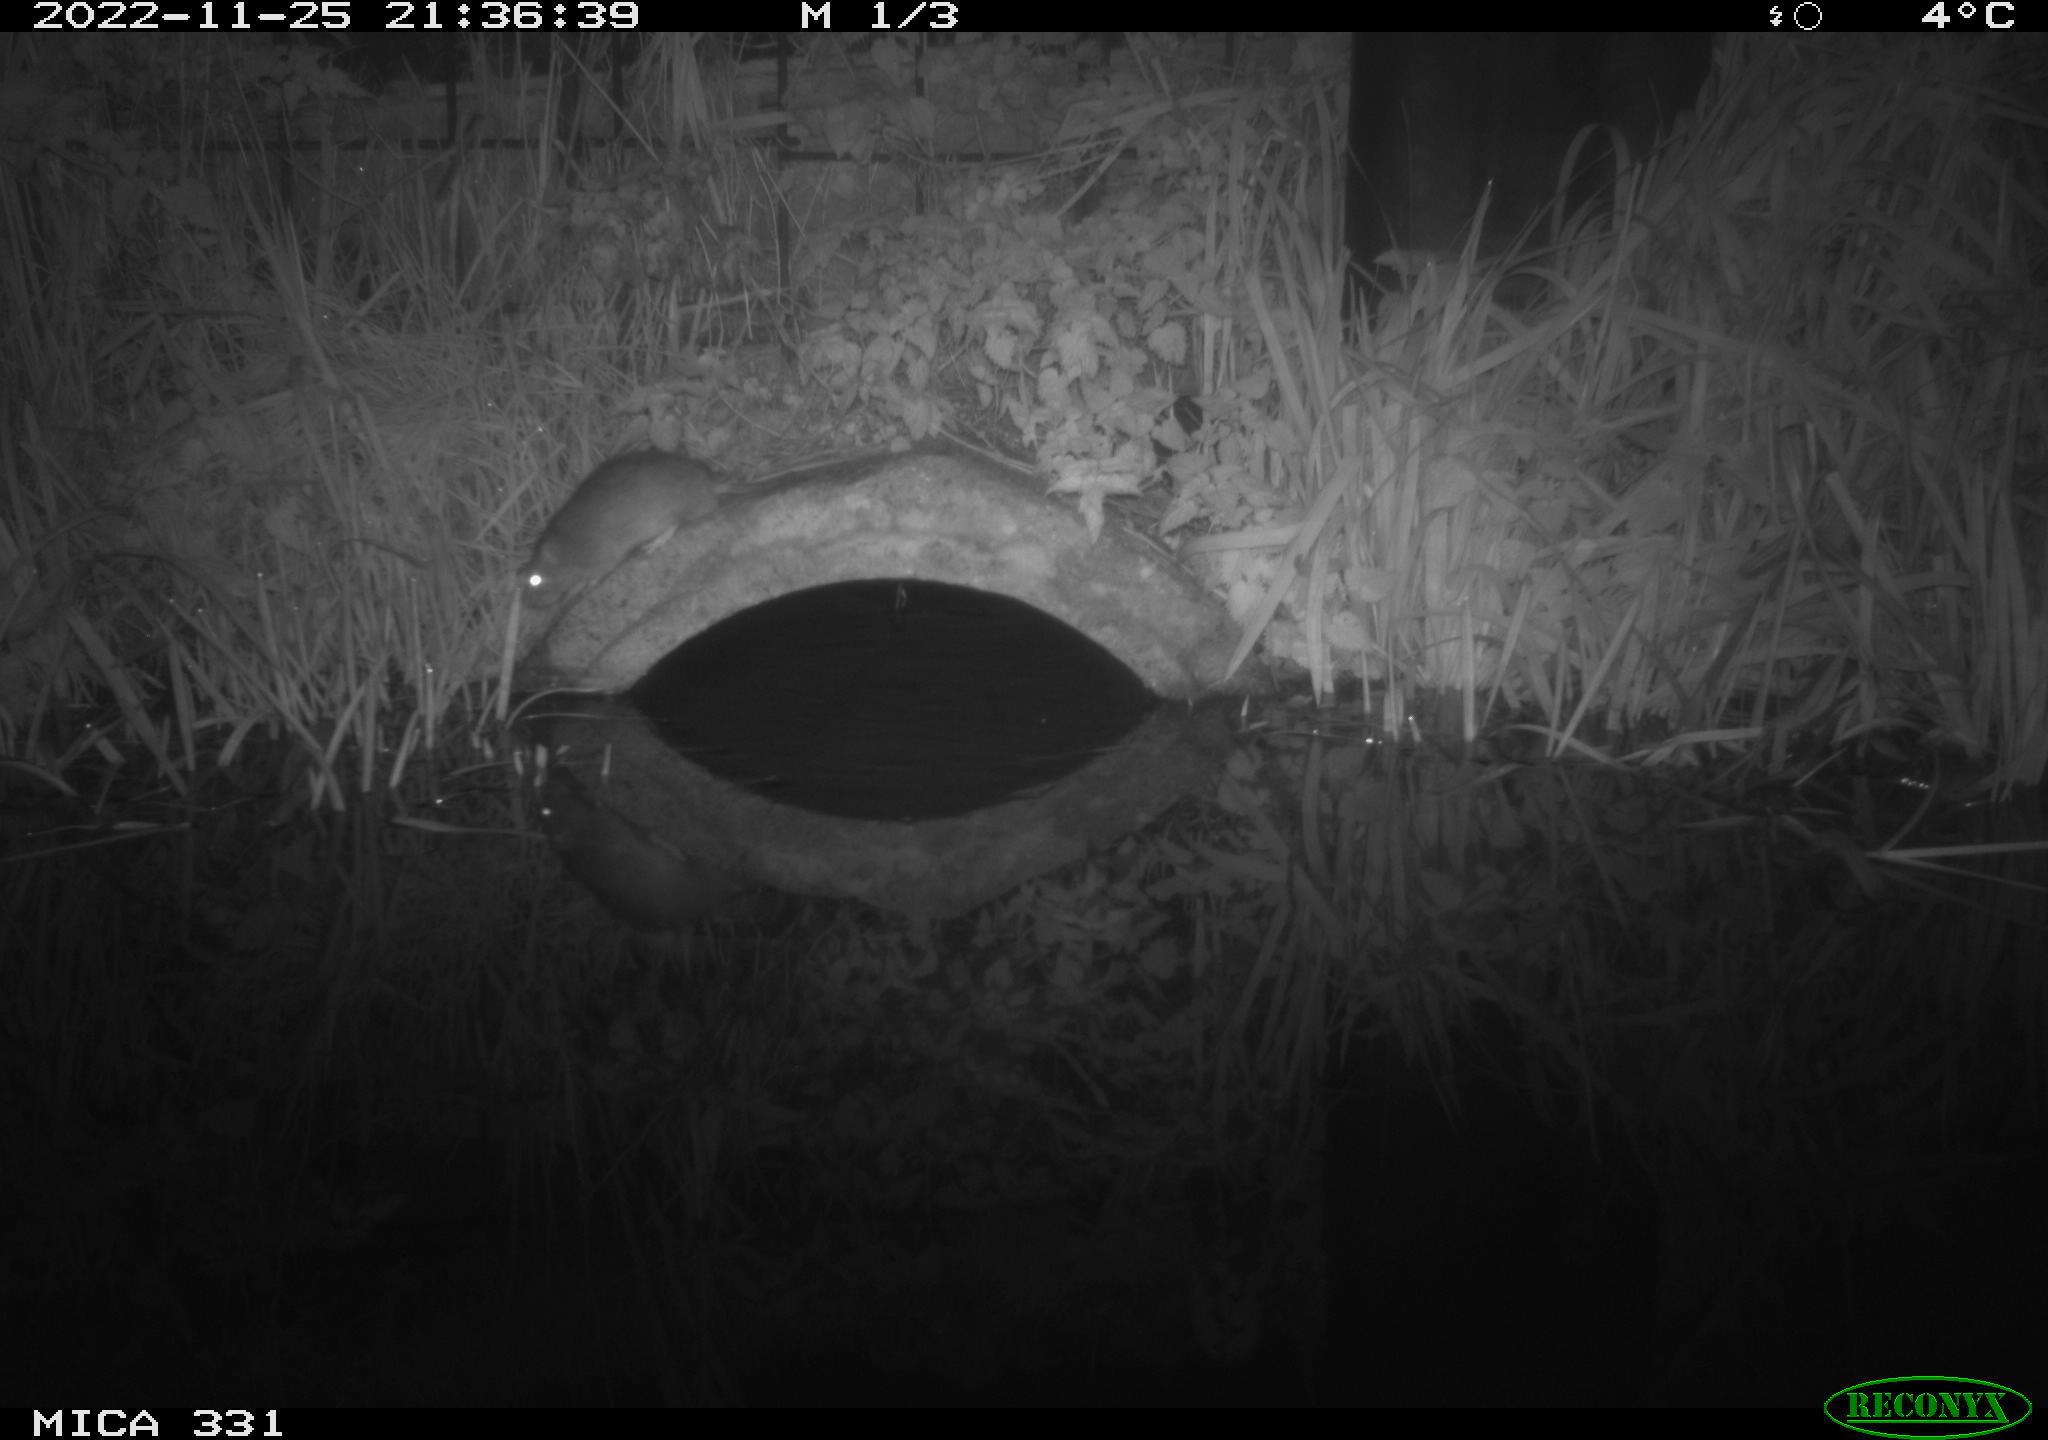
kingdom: Animalia
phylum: Chordata
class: Mammalia
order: Rodentia
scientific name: Rodentia
